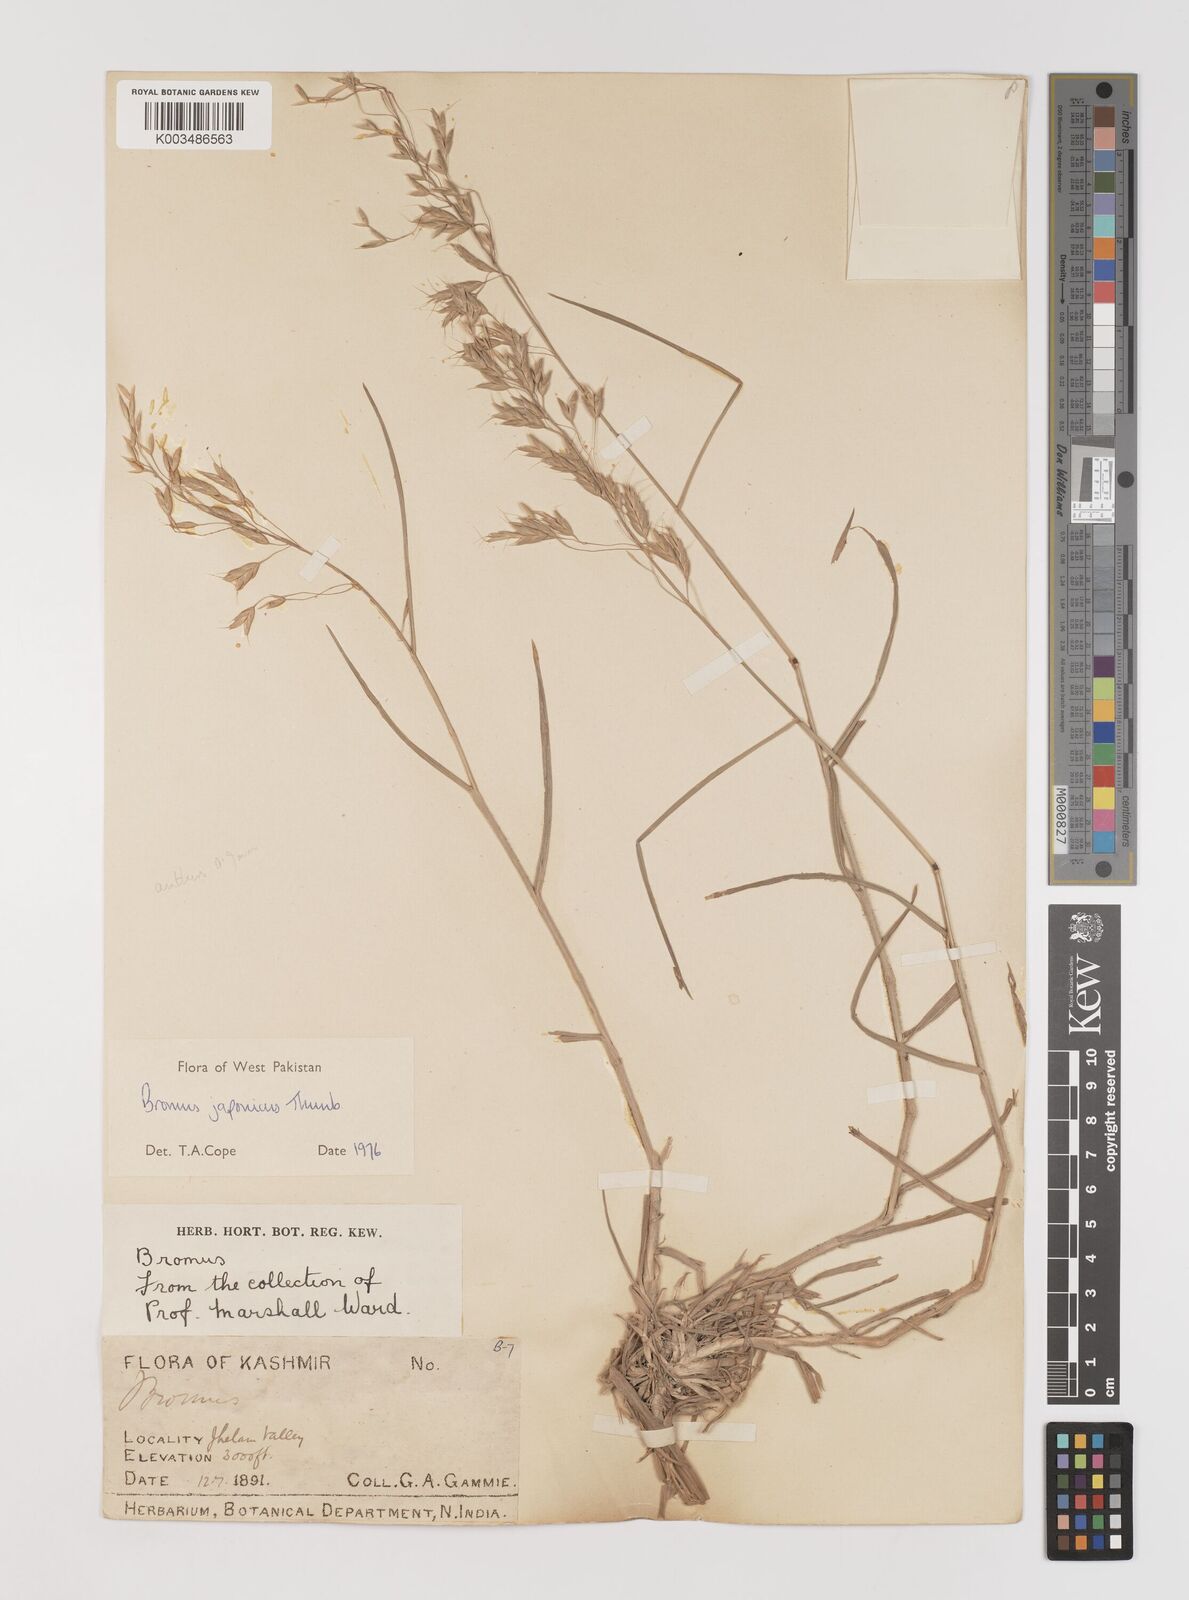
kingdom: Plantae
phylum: Tracheophyta
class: Liliopsida
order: Poales
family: Poaceae
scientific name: Poaceae
